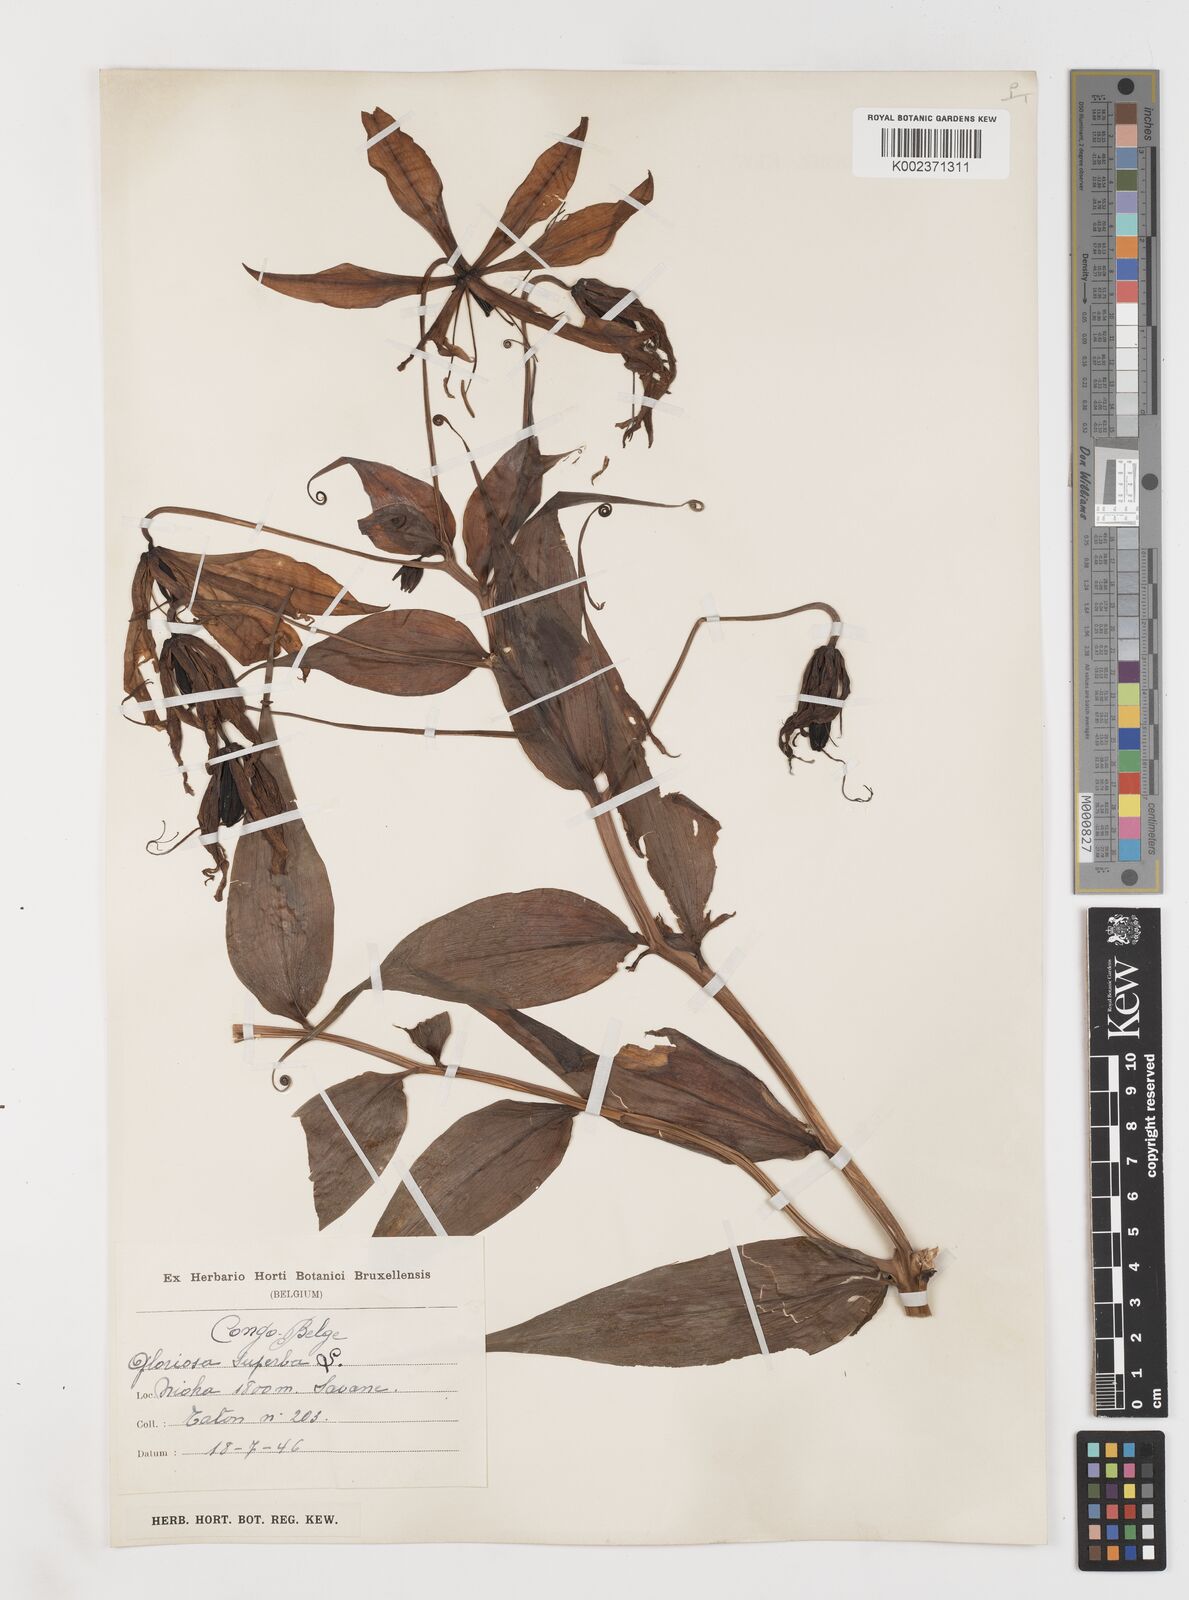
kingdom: Plantae
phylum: Tracheophyta
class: Liliopsida
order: Liliales
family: Colchicaceae
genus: Gloriosa
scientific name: Gloriosa simplex
